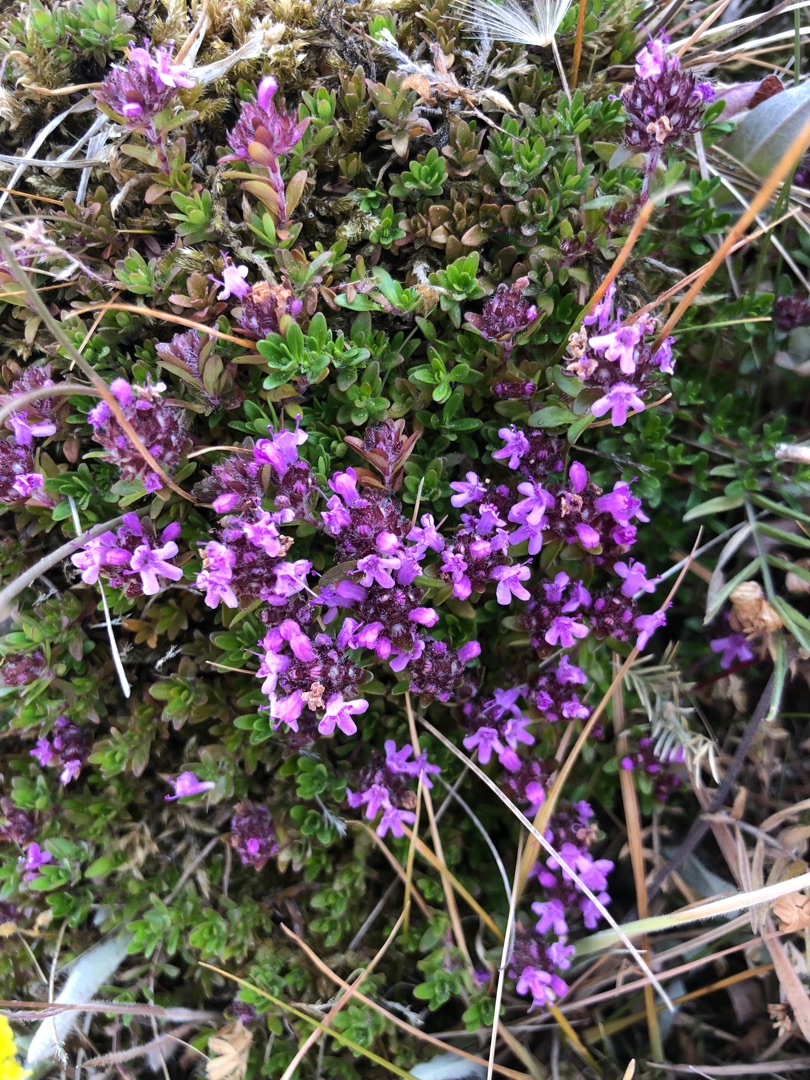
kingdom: Plantae
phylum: Tracheophyta
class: Magnoliopsida
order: Lamiales
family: Lamiaceae
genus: Thymus
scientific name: Thymus serpyllum
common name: Smalbladet timian
